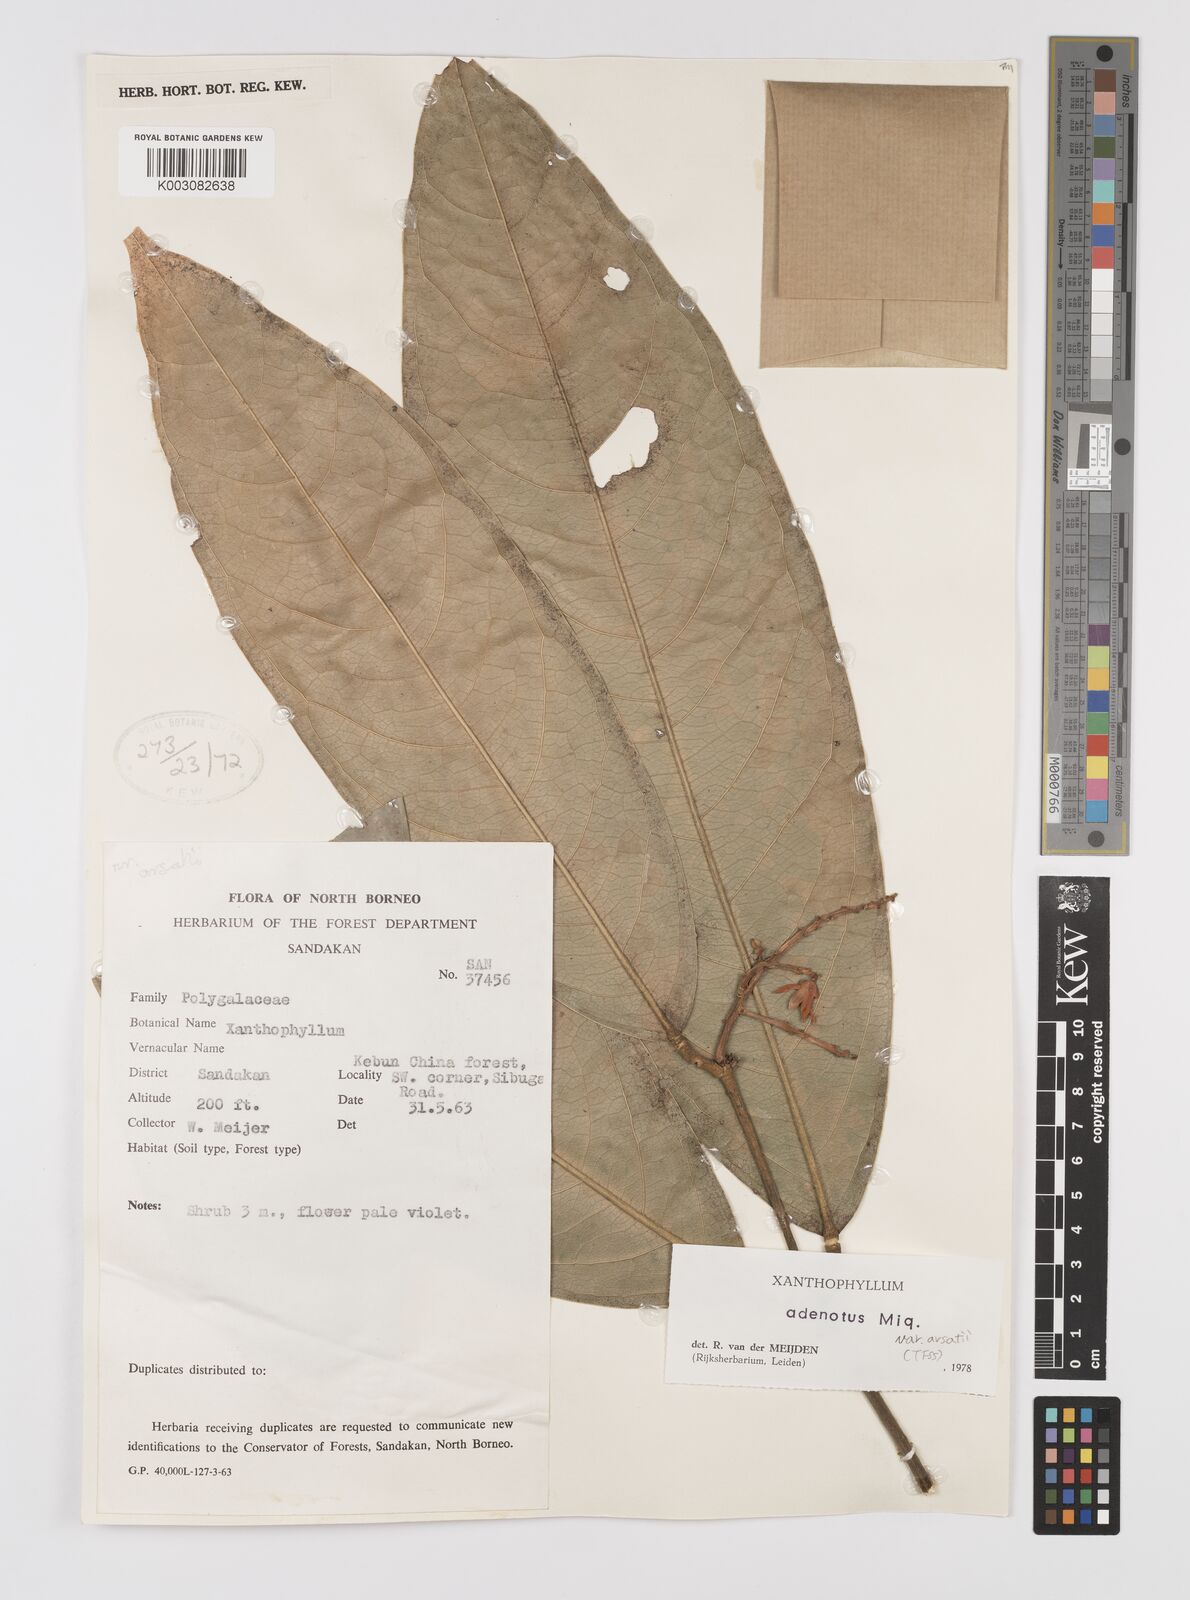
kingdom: Plantae
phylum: Tracheophyta
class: Magnoliopsida
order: Fabales
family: Polygalaceae
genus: Xanthophyllum
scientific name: Xanthophyllum adenotus
